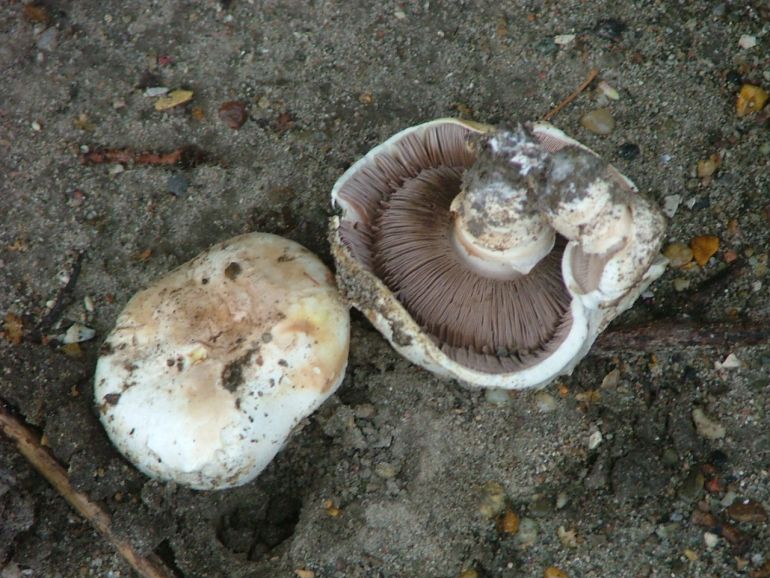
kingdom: Fungi
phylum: Basidiomycota
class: Agaricomycetes
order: Agaricales
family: Agaricaceae
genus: Agaricus
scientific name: Agaricus bitorquis
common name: vej-champignon
